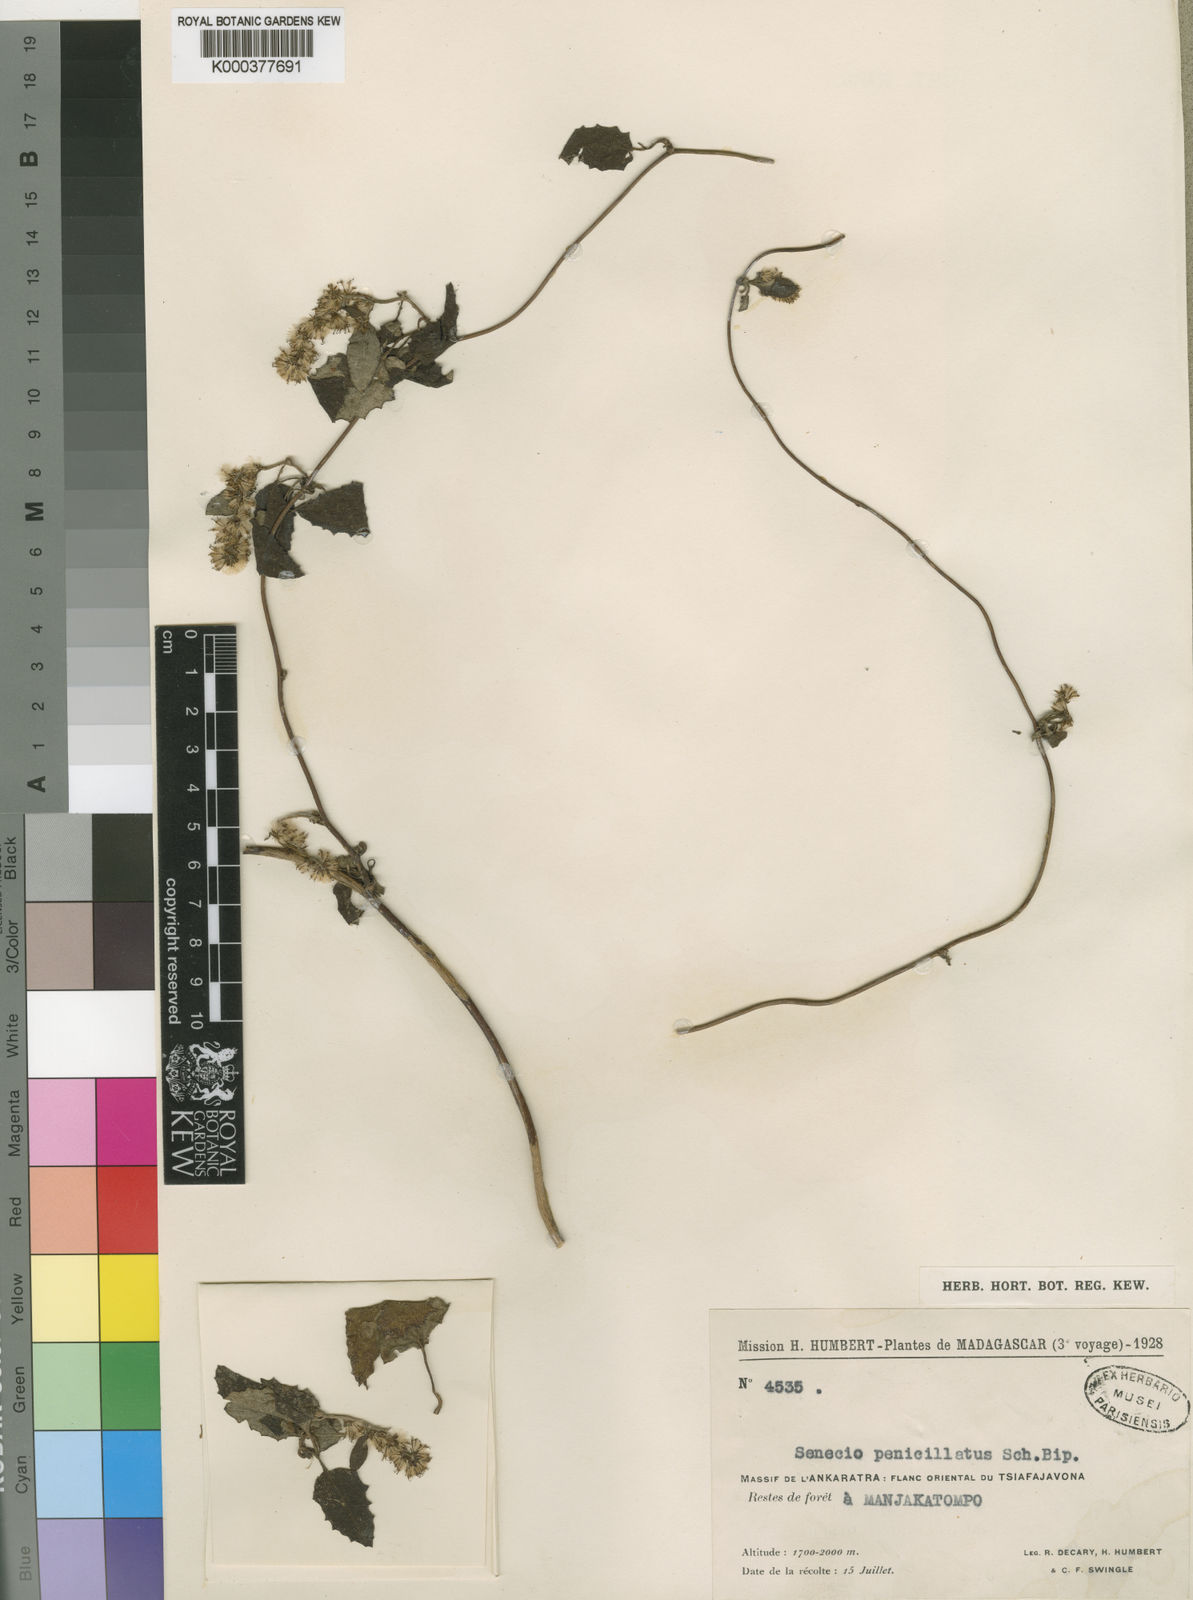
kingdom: Plantae
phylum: Tracheophyta
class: Magnoliopsida
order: Asterales
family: Asteraceae
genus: Humbertacalia
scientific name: Humbertacalia
